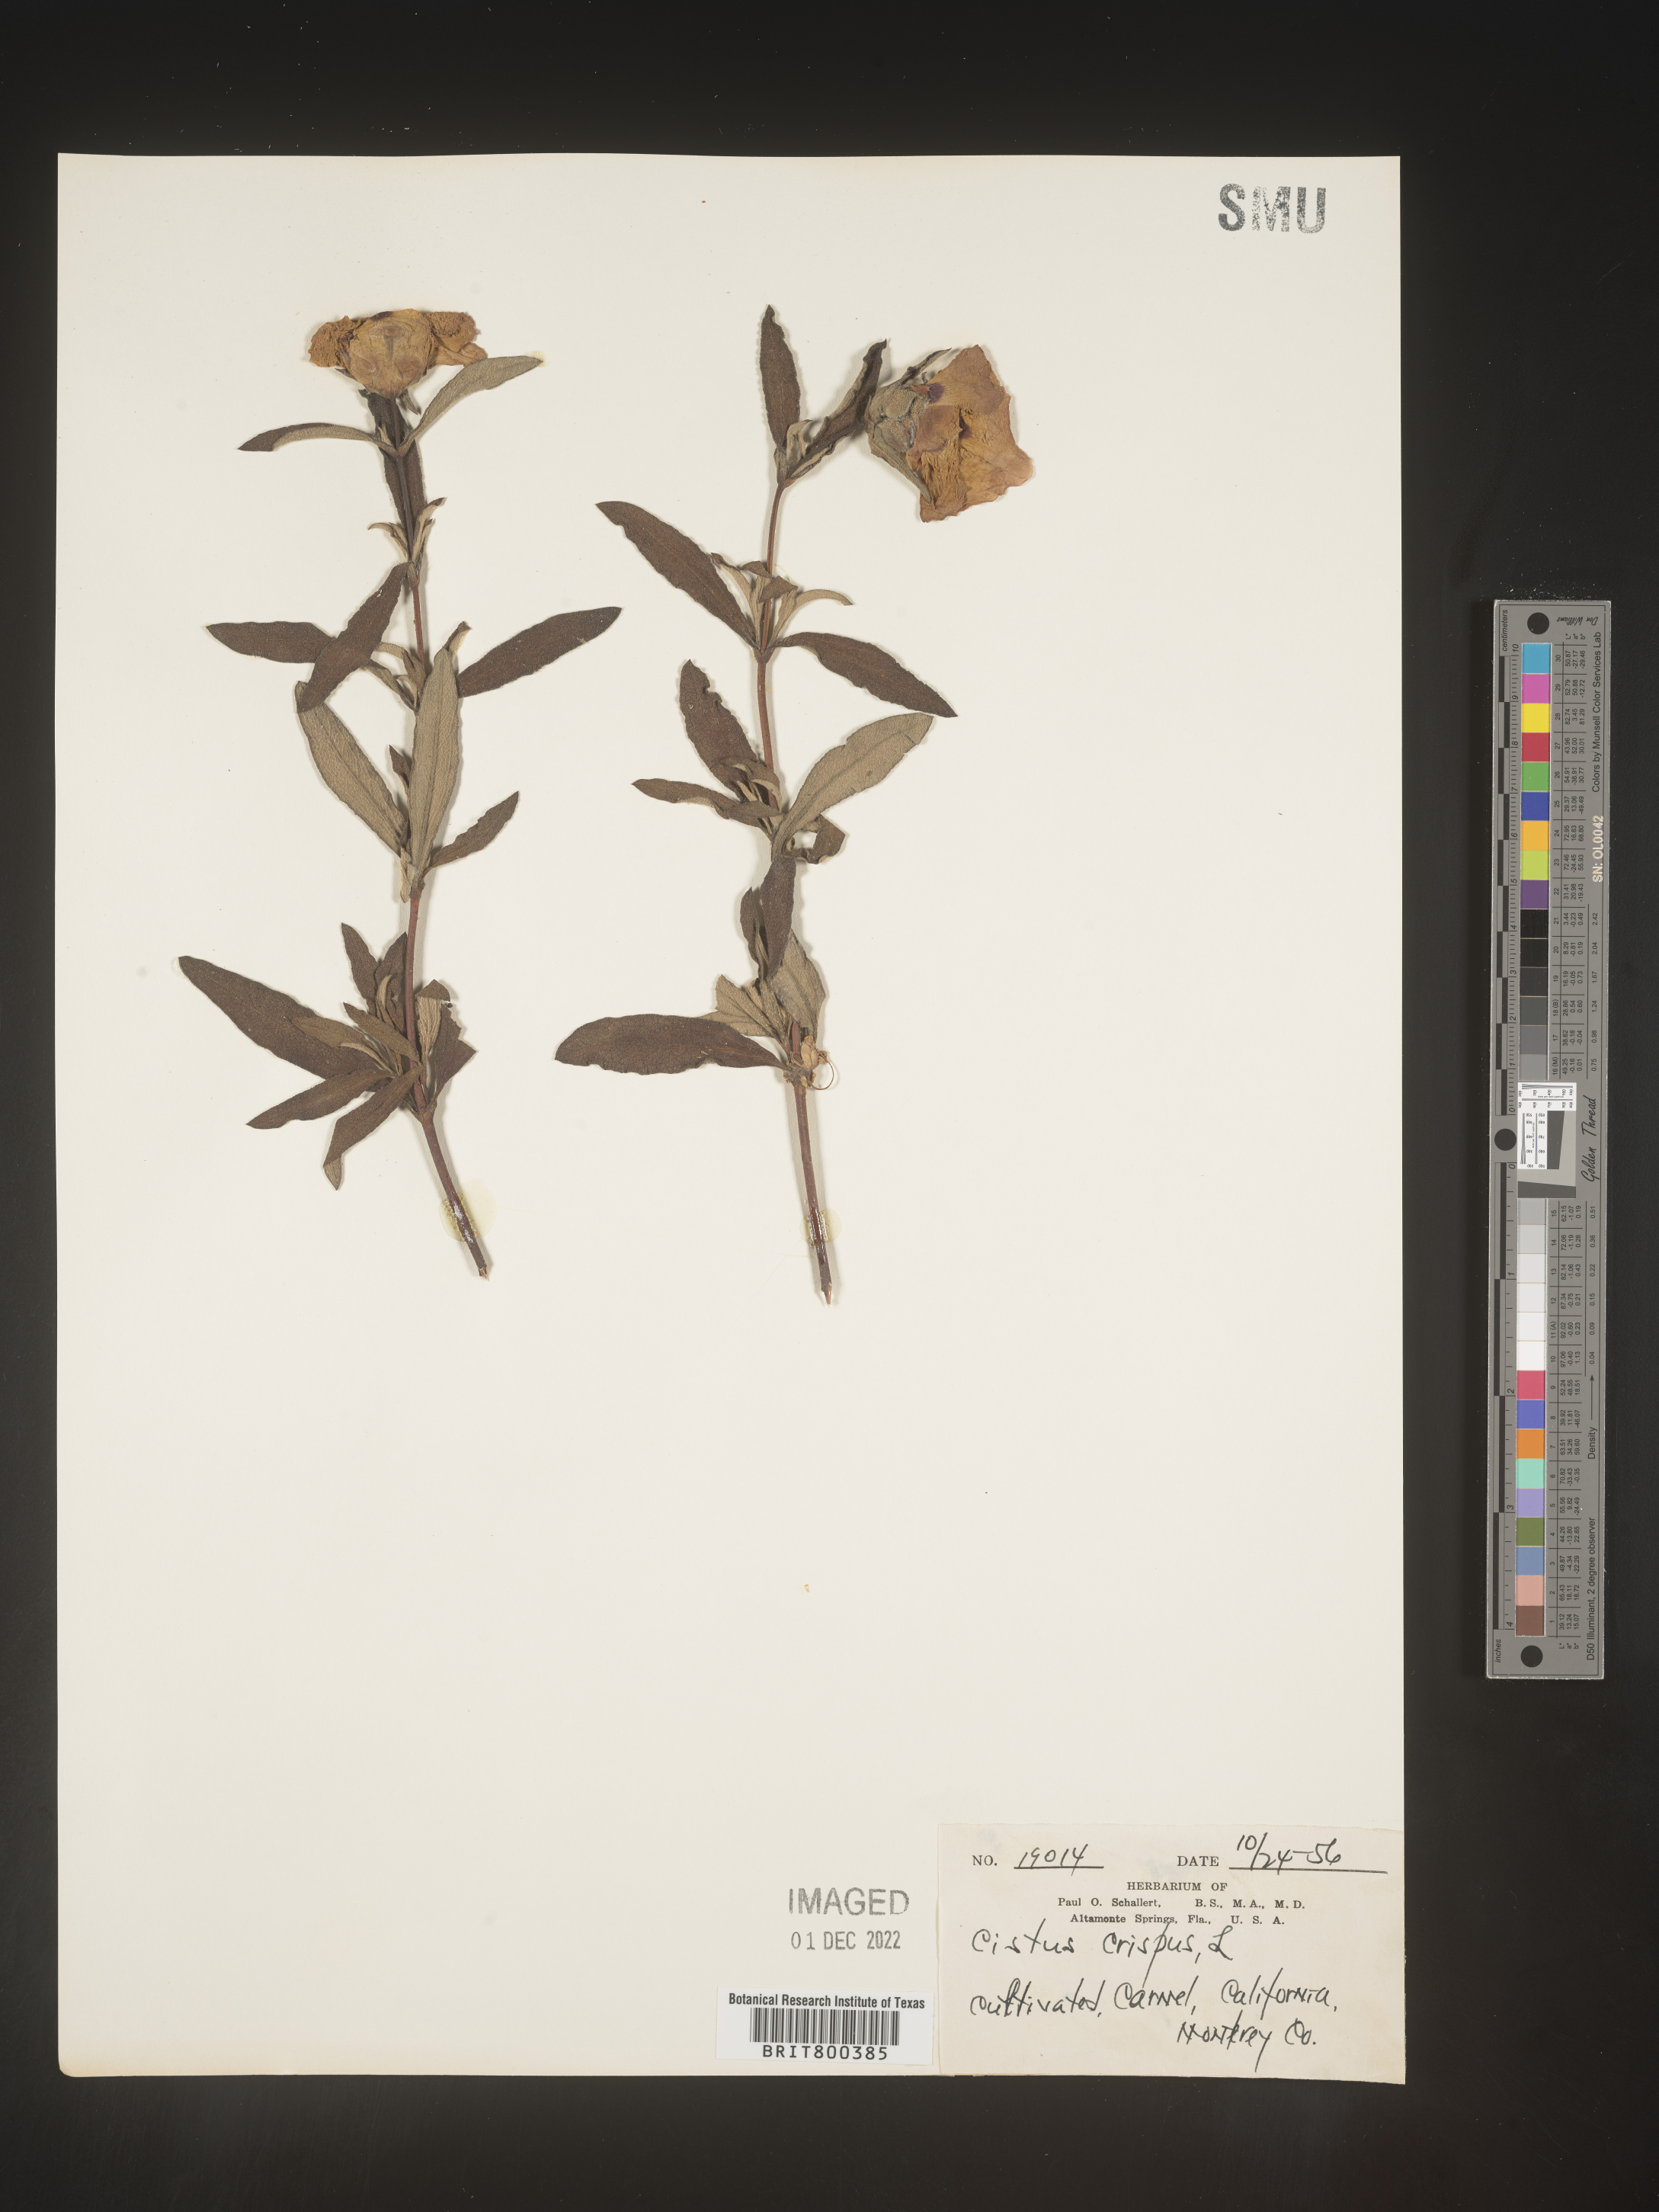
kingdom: Plantae
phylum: Tracheophyta
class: Magnoliopsida
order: Malvales
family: Cistaceae
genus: Cistus
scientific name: Cistus
